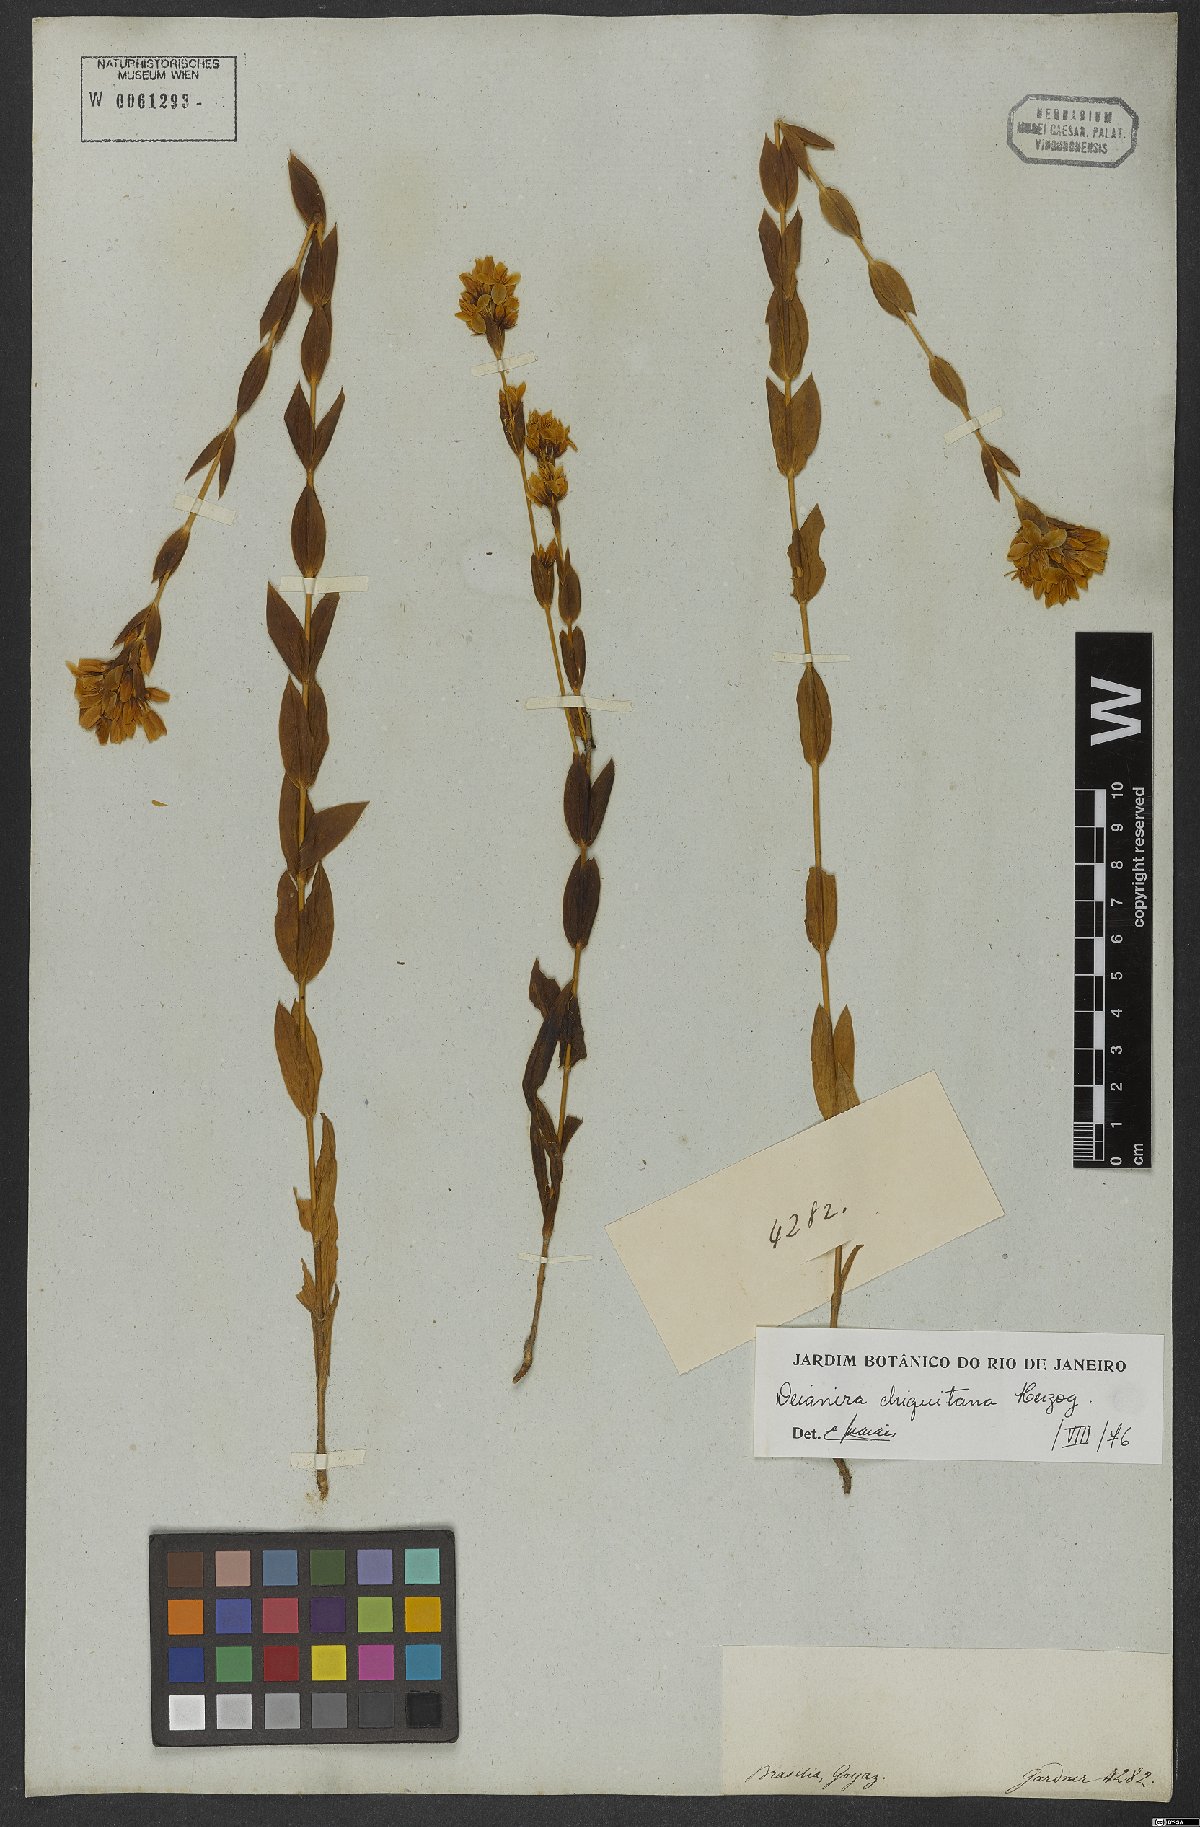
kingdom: Plantae
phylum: Tracheophyta
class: Magnoliopsida
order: Gentianales
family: Gentianaceae
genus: Deianira
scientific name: Deianira chiquitana
